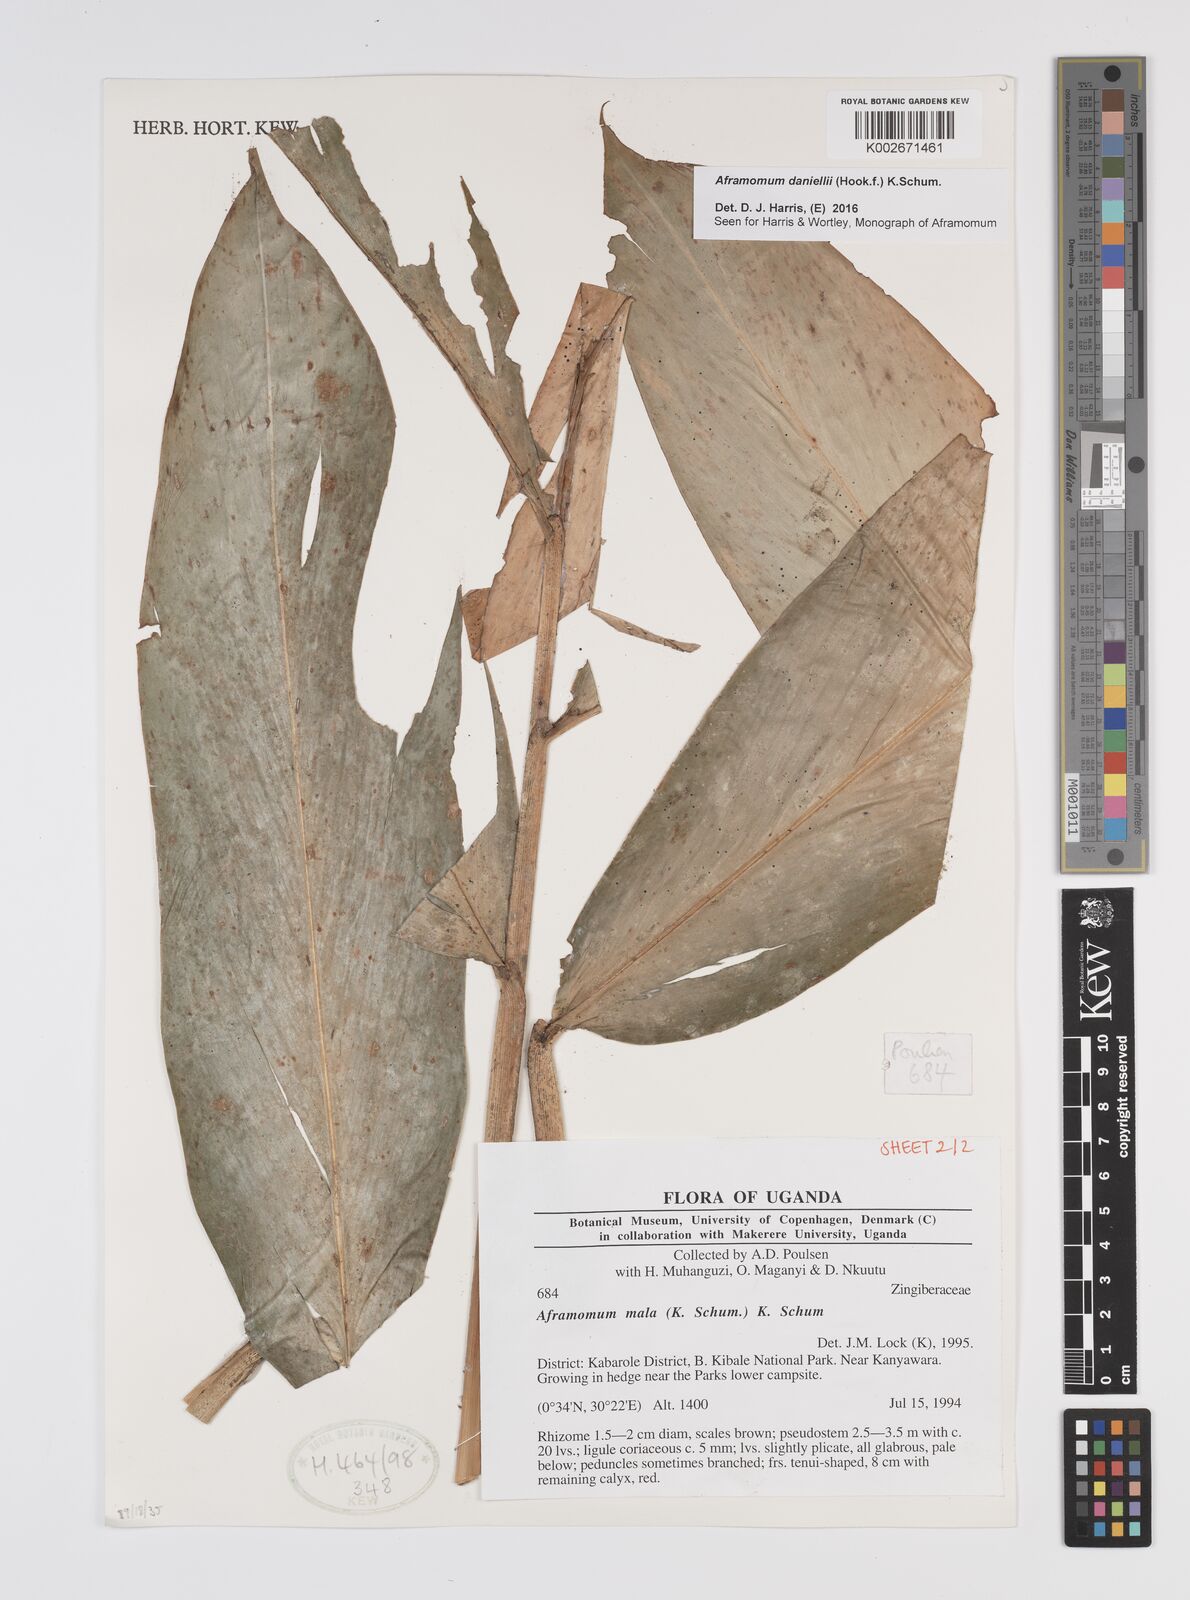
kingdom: Plantae
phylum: Tracheophyta
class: Liliopsida
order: Zingiberales
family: Zingiberaceae
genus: Aframomum
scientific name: Aframomum daniellii
